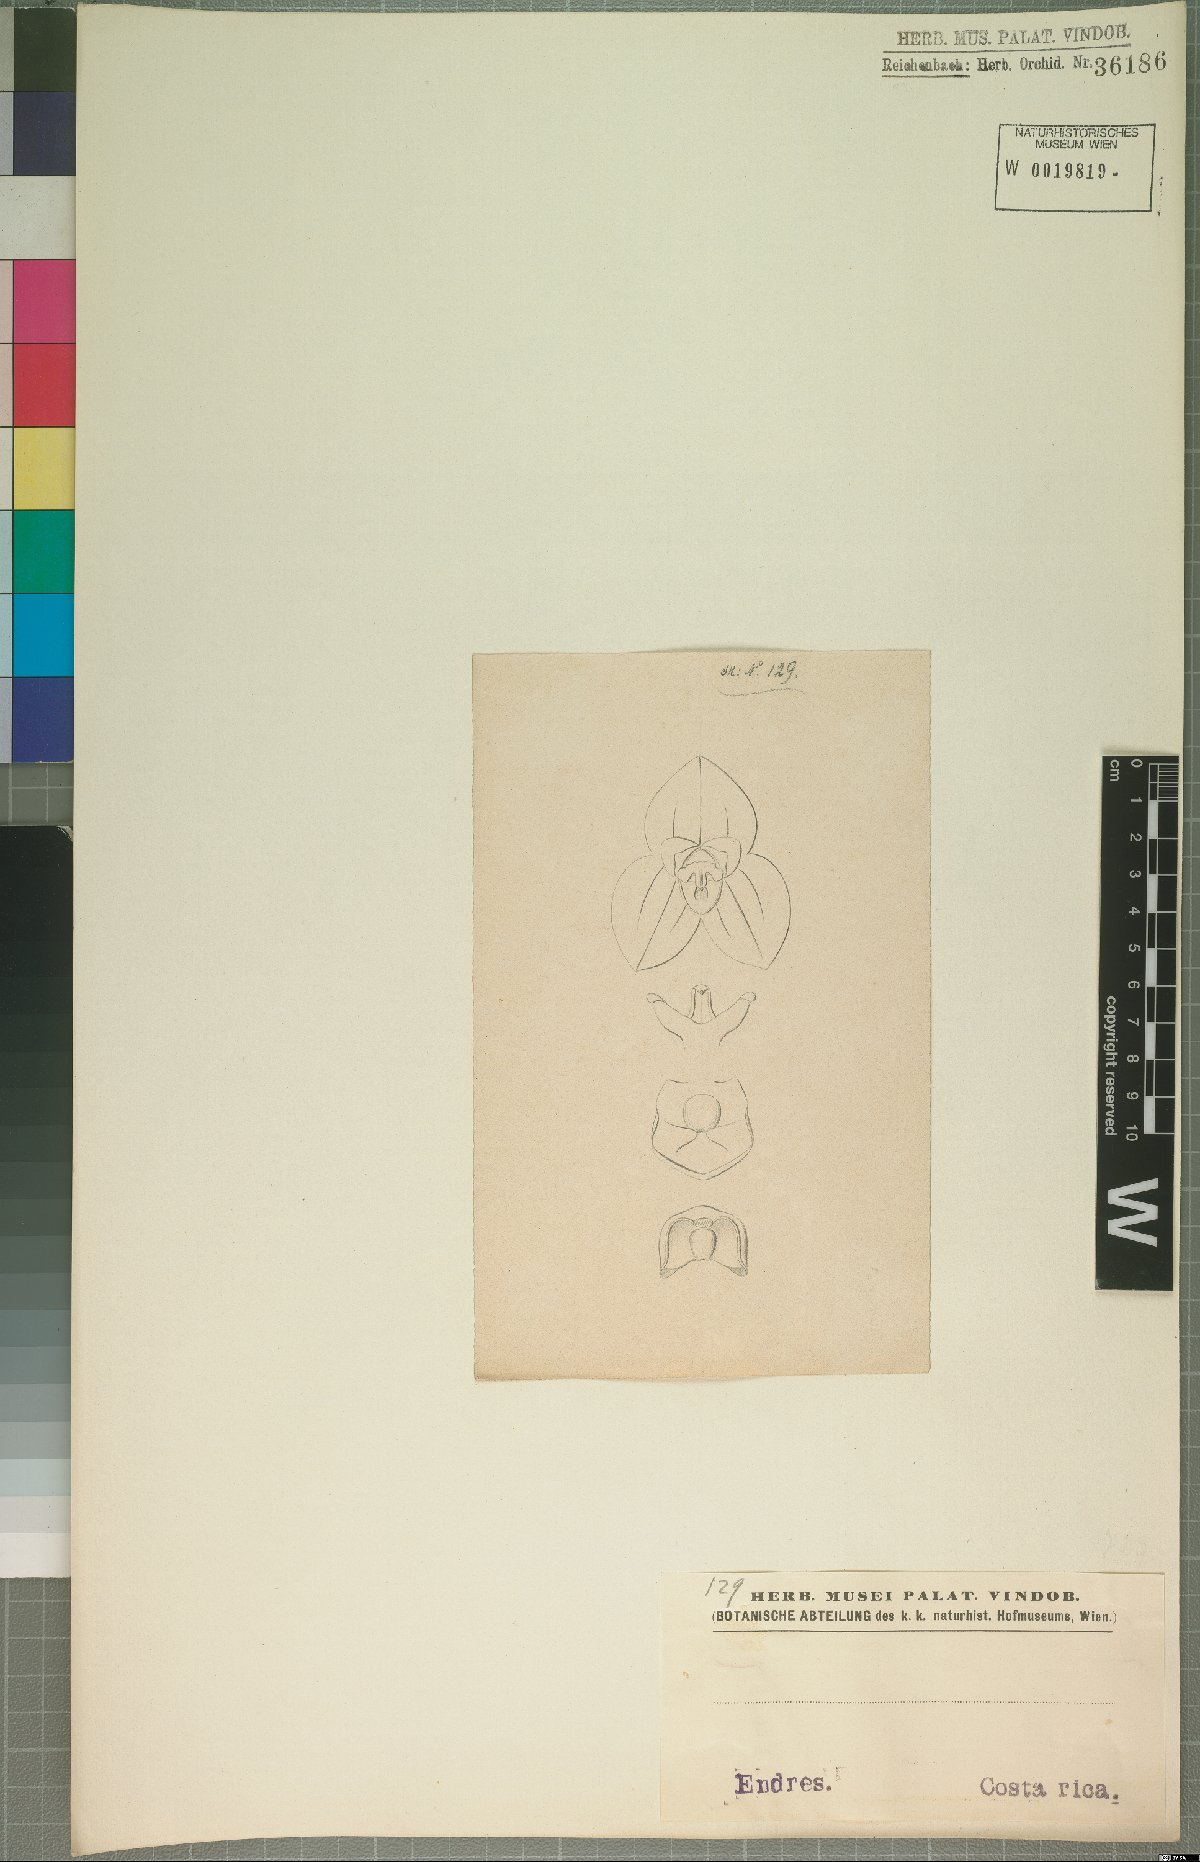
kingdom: Plantae
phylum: Tracheophyta
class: Liliopsida
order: Asparagales
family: Orchidaceae
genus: Stelis
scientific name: Stelis
